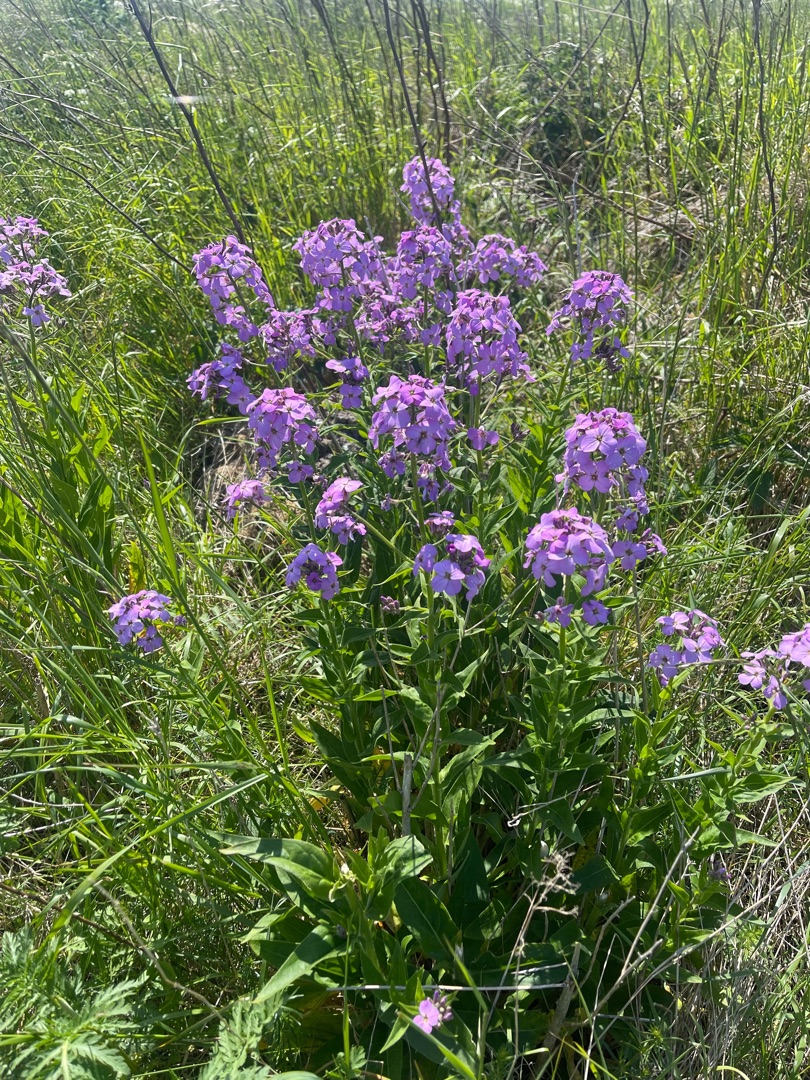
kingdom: Plantae
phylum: Tracheophyta
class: Magnoliopsida
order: Brassicales
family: Brassicaceae
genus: Hesperis
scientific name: Hesperis matronalis
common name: Aftenstjerne
